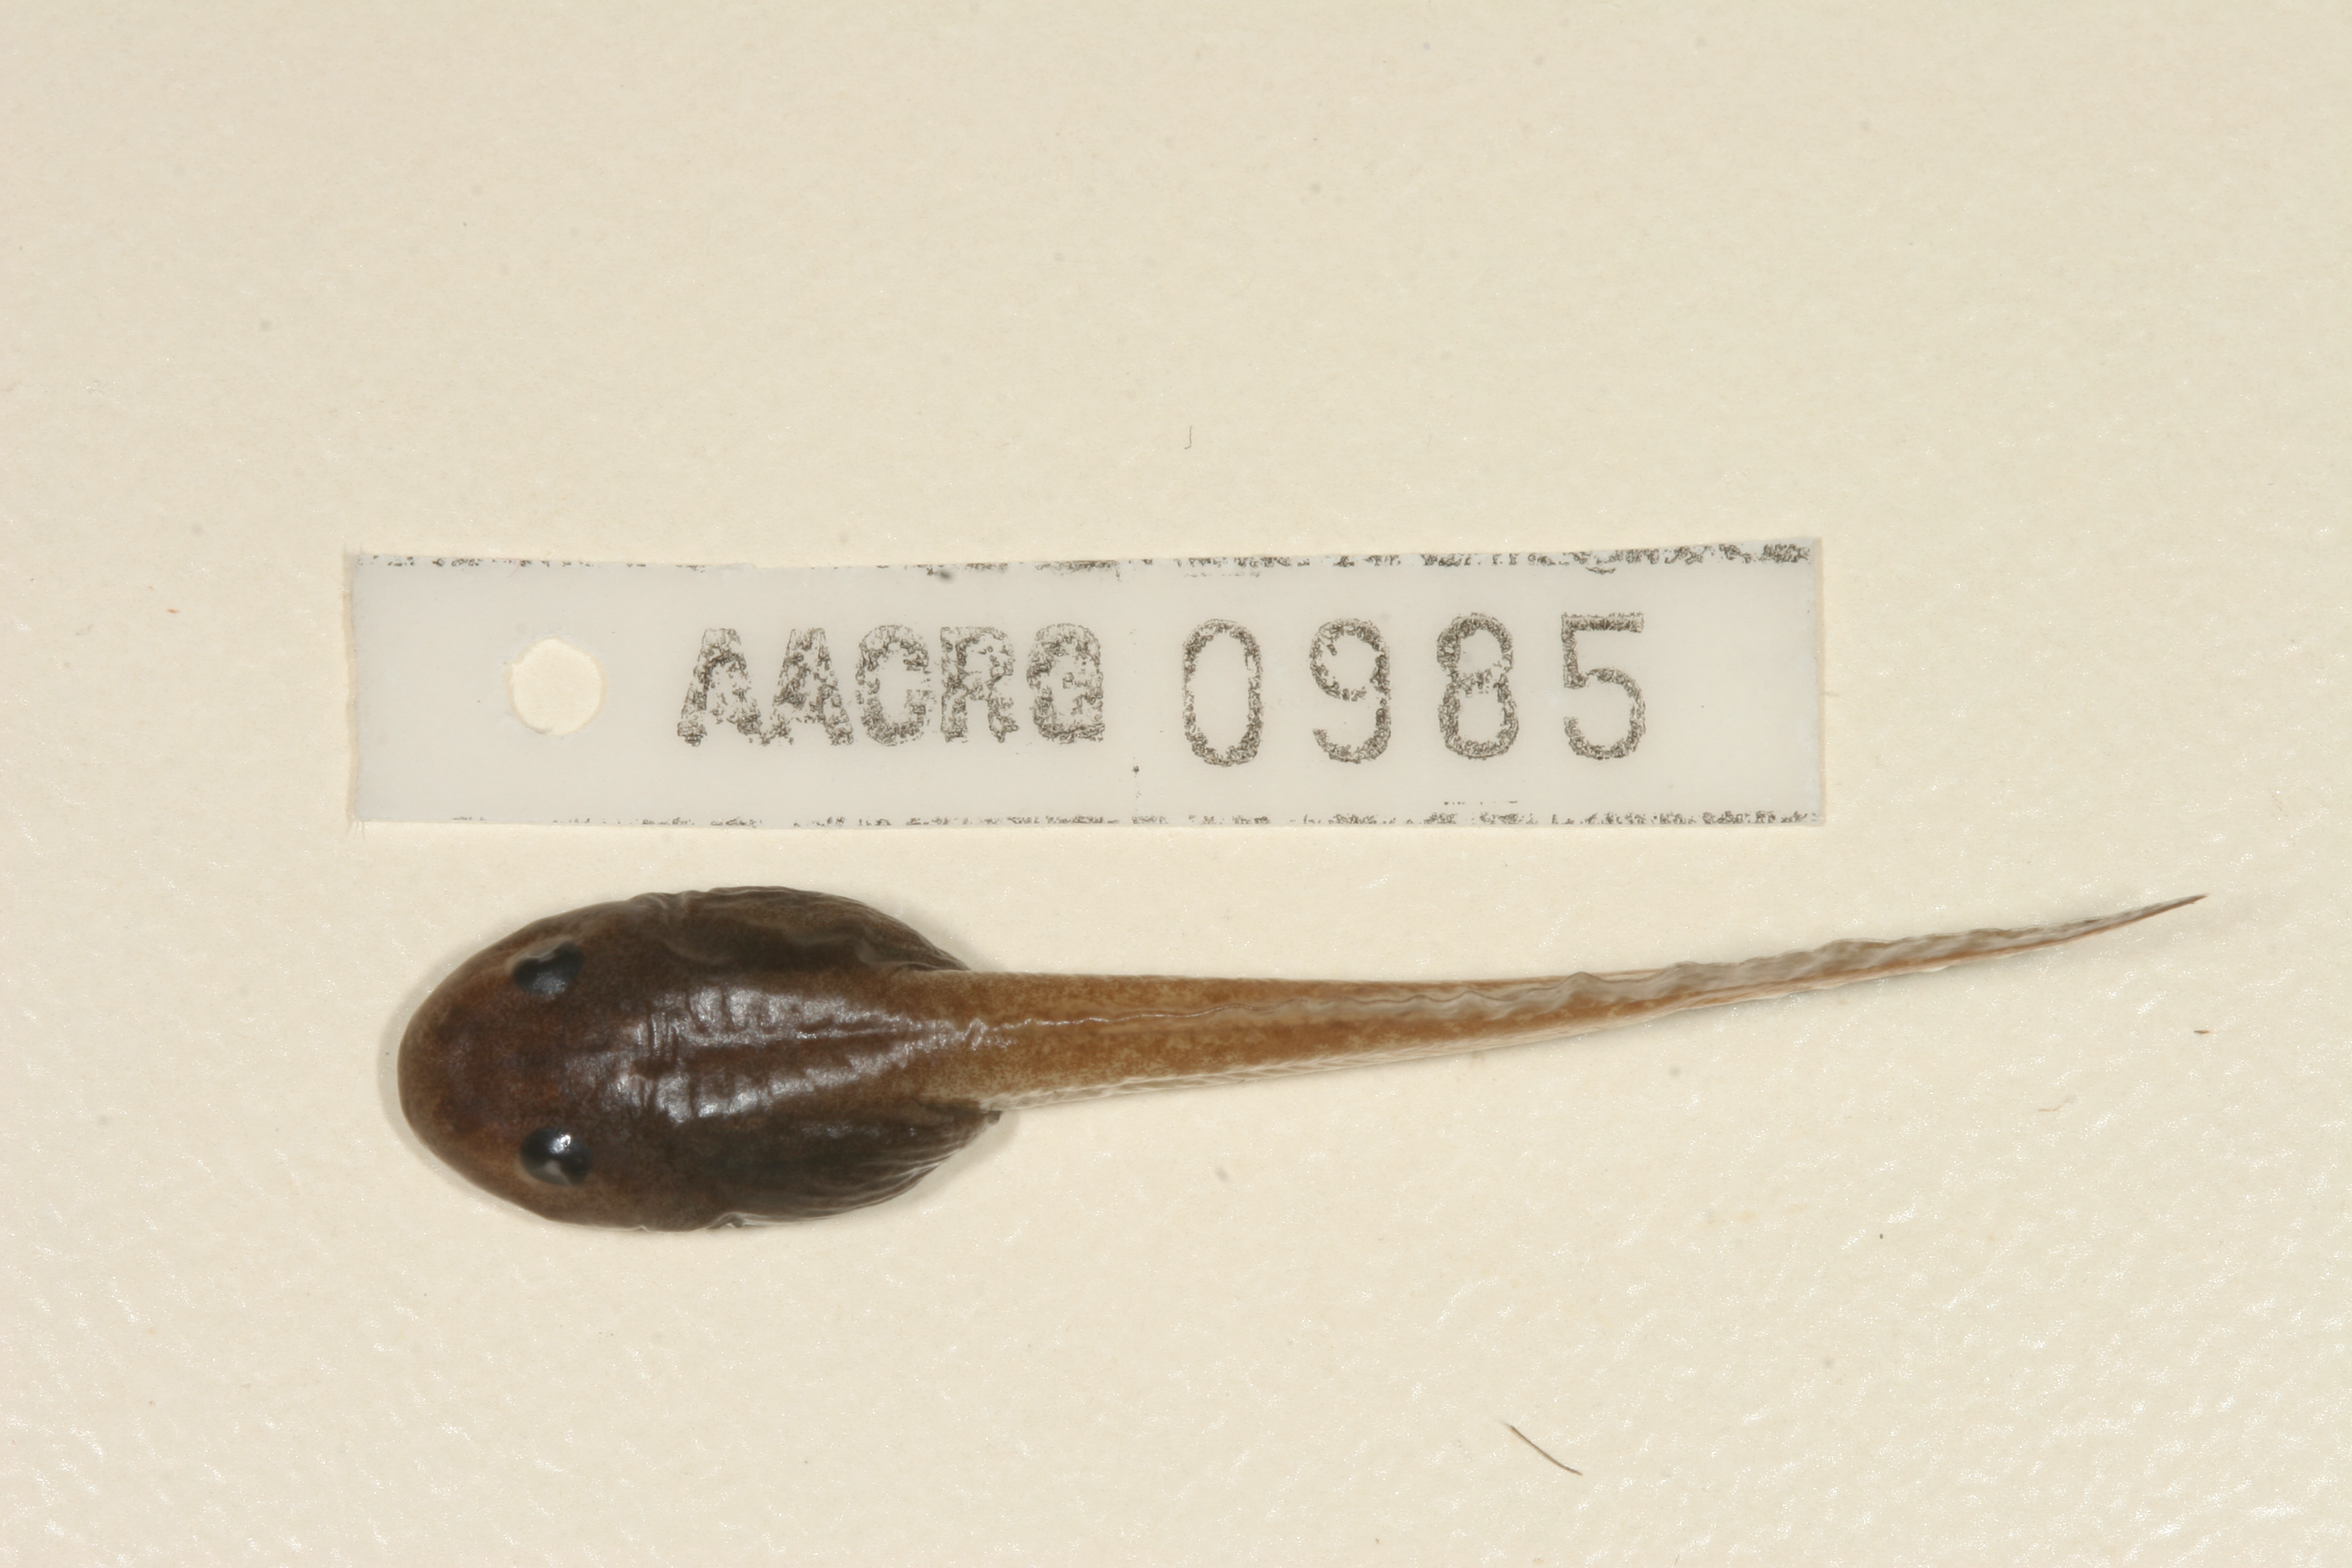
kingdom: Animalia
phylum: Chordata
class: Amphibia
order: Anura
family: Arthroleptidae
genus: Leptopelis
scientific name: Leptopelis mossambicus
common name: Mozambique tree frog
